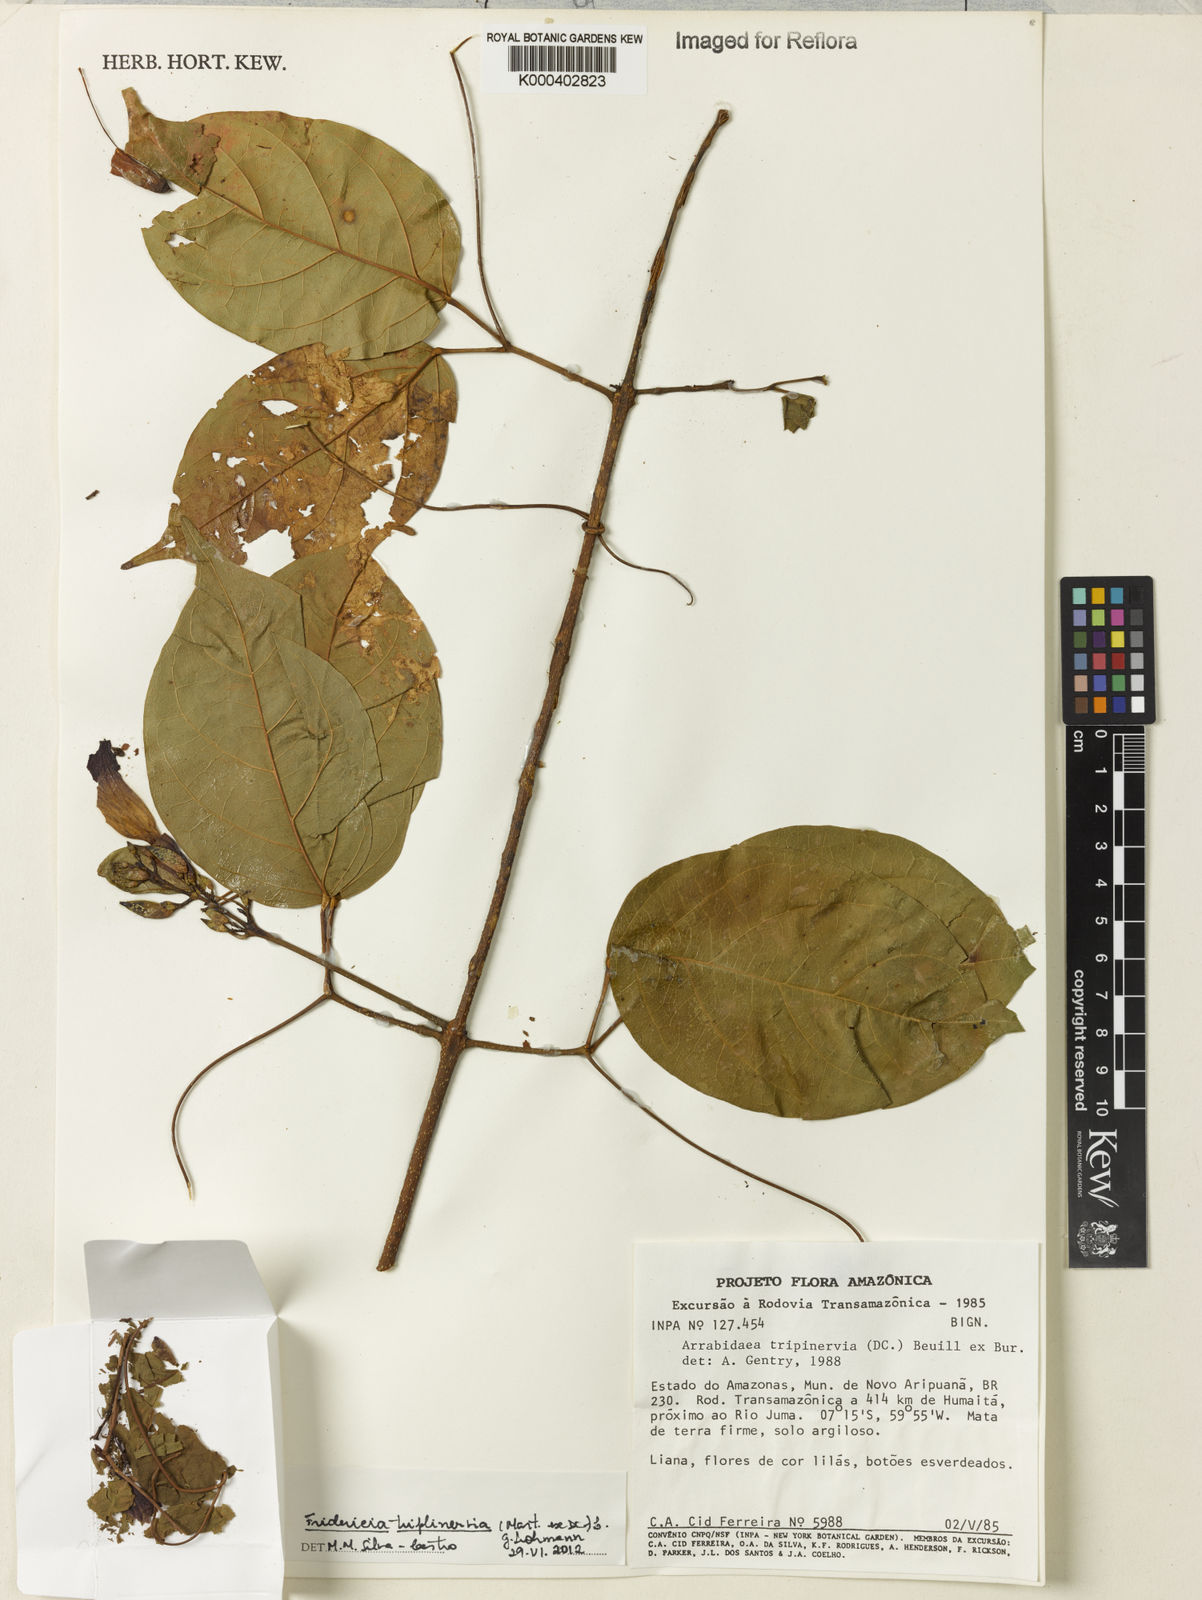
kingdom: Plantae
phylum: Tracheophyta
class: Magnoliopsida
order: Lamiales
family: Bignoniaceae
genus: Fridericia
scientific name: Fridericia triplinervia
